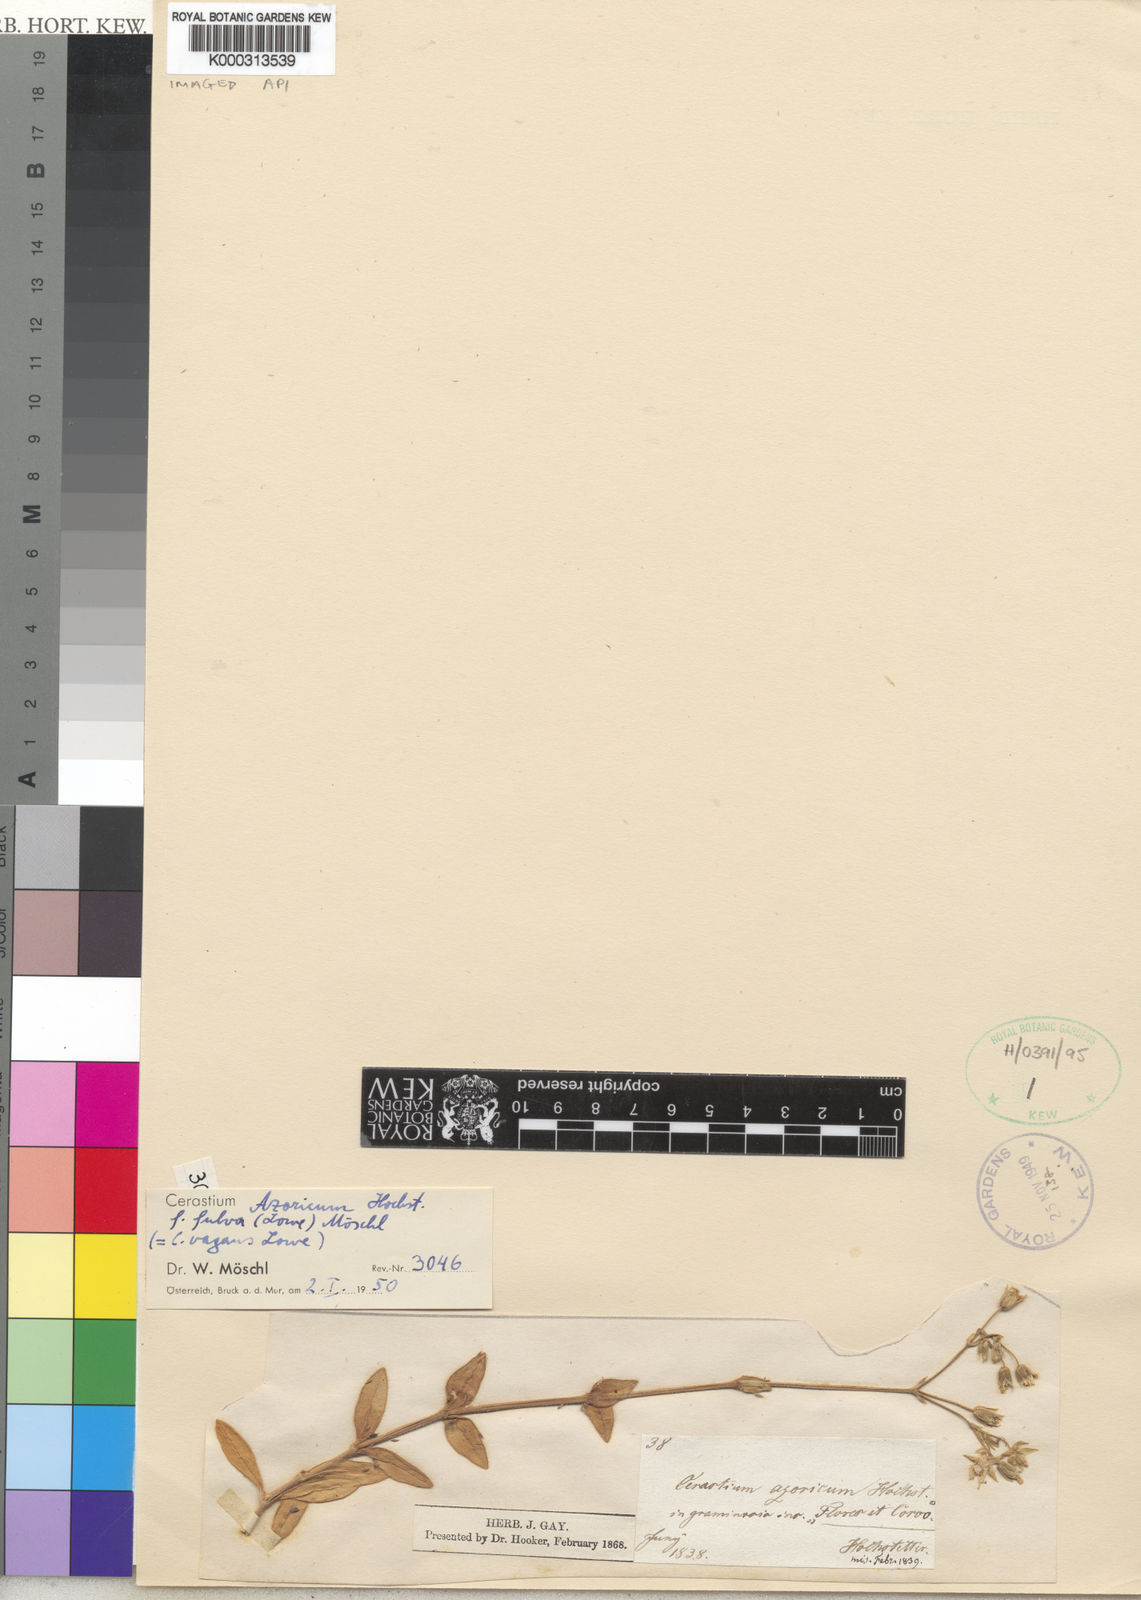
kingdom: Plantae
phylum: Tracheophyta
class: Magnoliopsida
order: Caryophyllales
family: Caryophyllaceae
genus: Cerastium
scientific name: Cerastium azoricum
